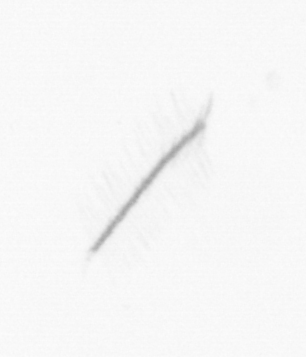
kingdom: Chromista
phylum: Ochrophyta
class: Bacillariophyceae
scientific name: Bacillariophyceae
